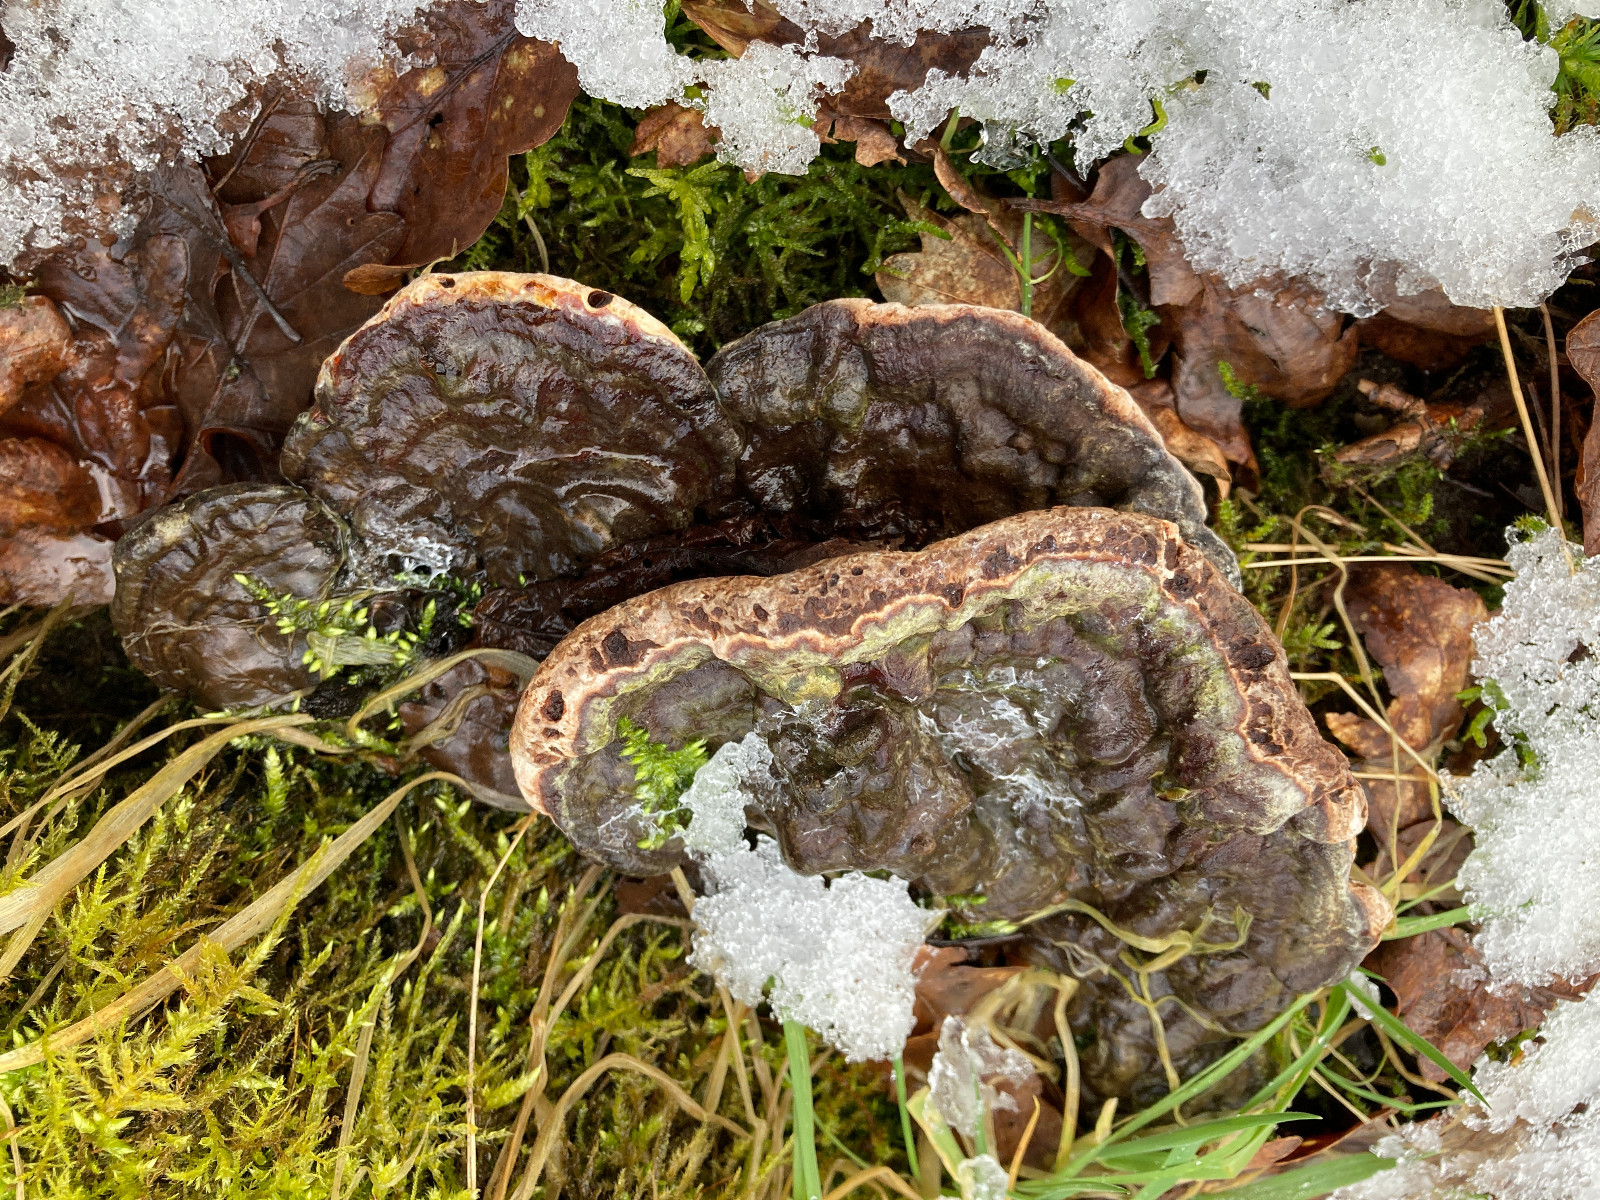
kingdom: Fungi
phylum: Basidiomycota
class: Agaricomycetes
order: Polyporales
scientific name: Polyporales
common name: poresvampordenen
